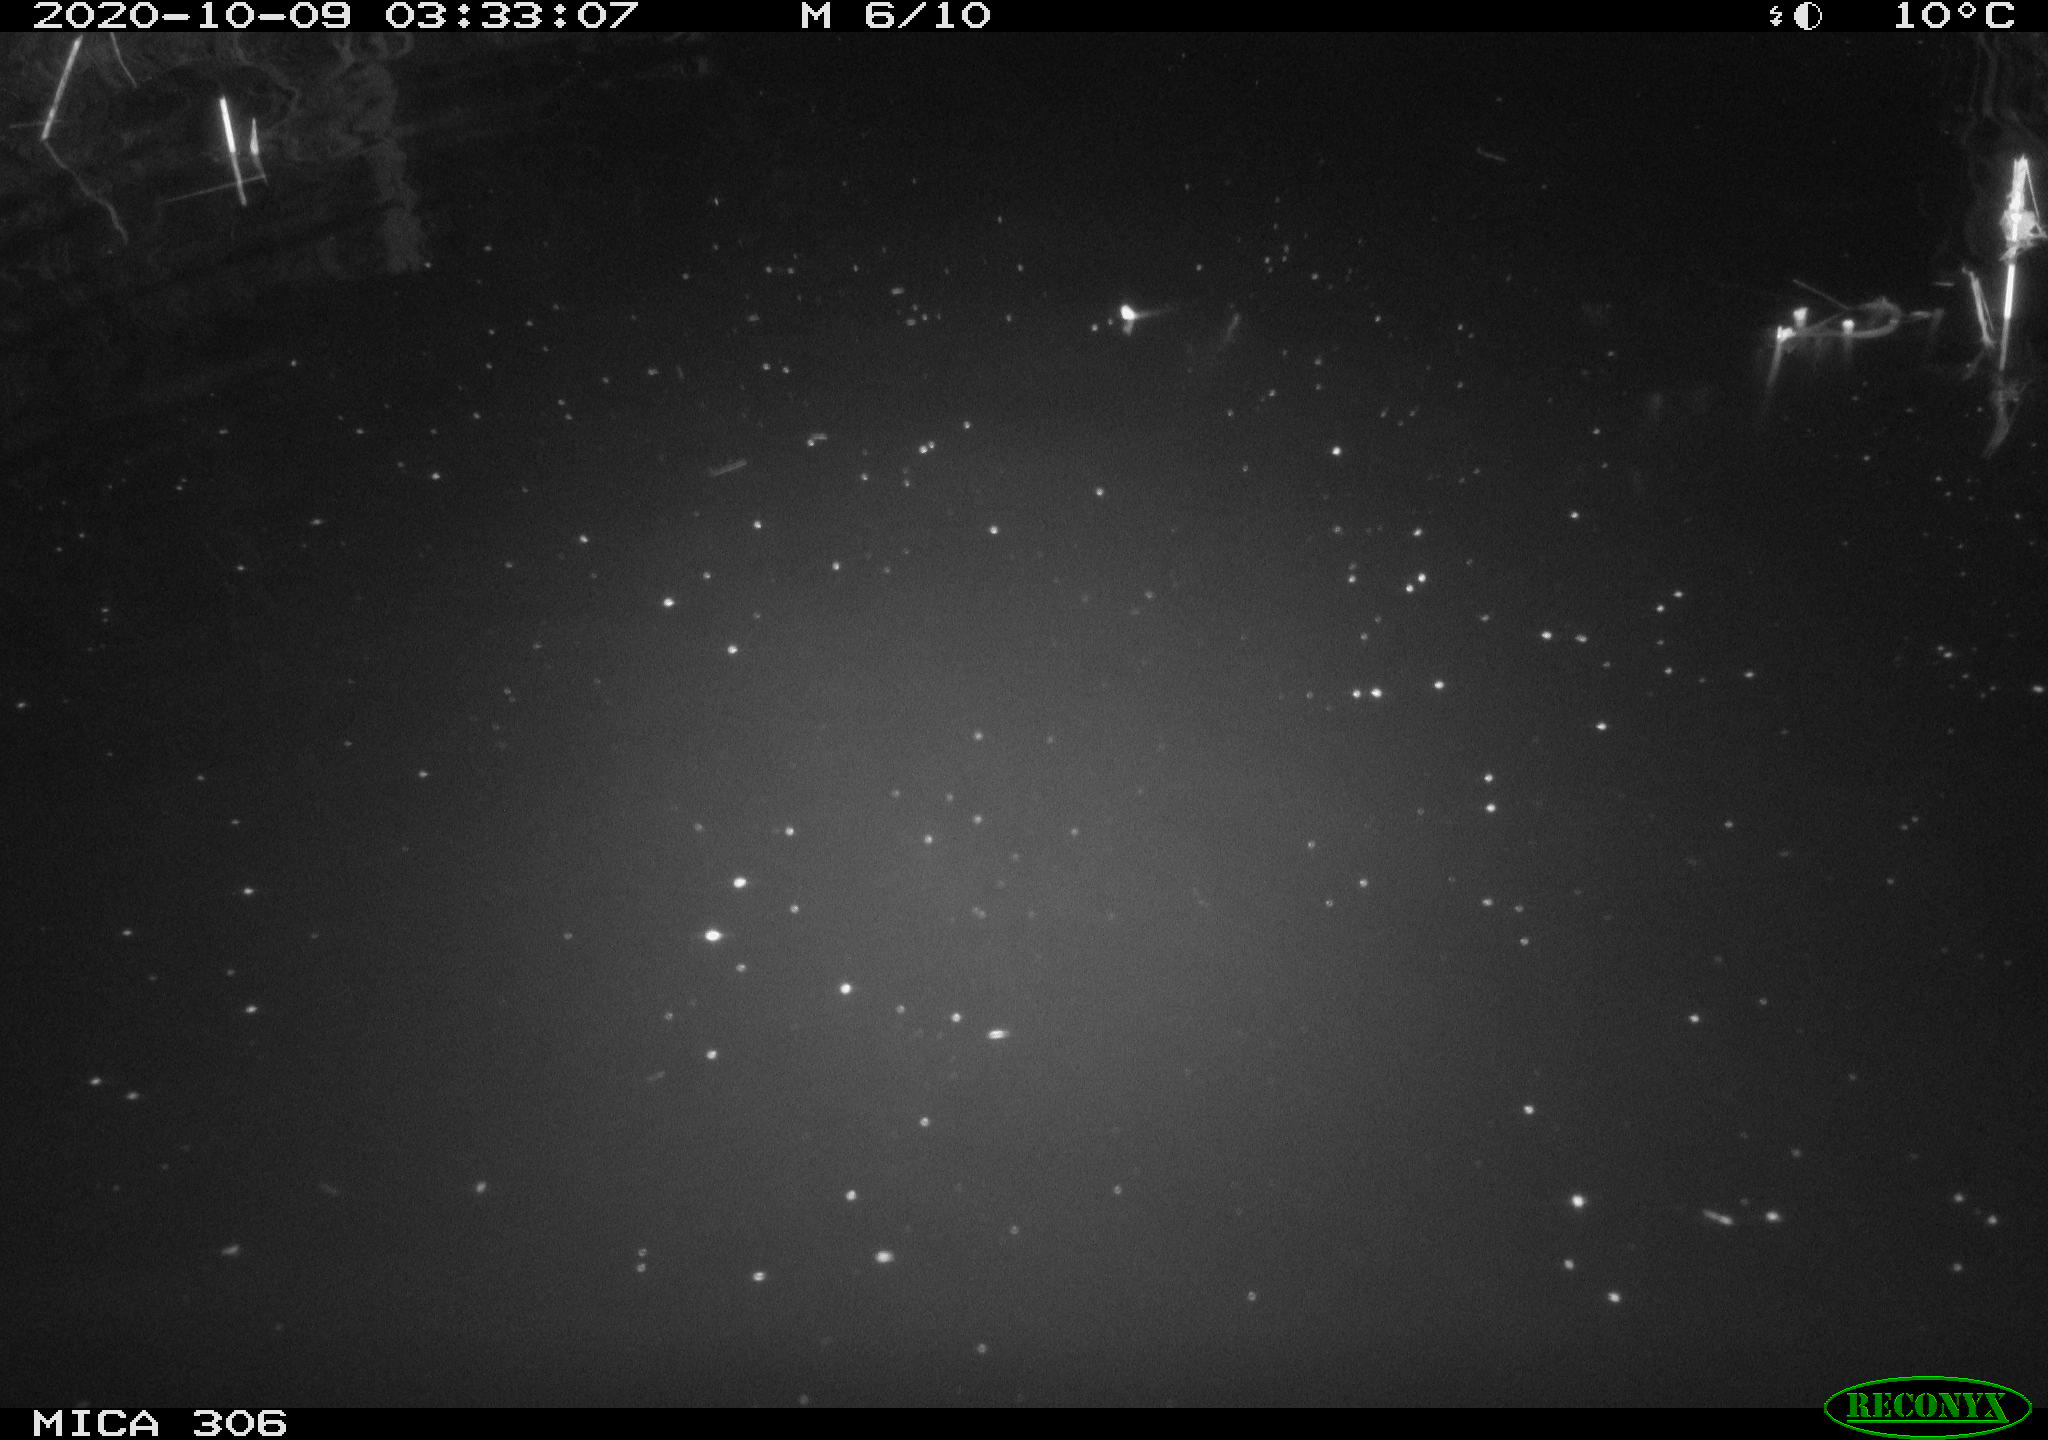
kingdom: Animalia
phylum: Chordata
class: Mammalia
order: Rodentia
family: Cricetidae
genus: Ondatra
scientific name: Ondatra zibethicus
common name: Muskrat
